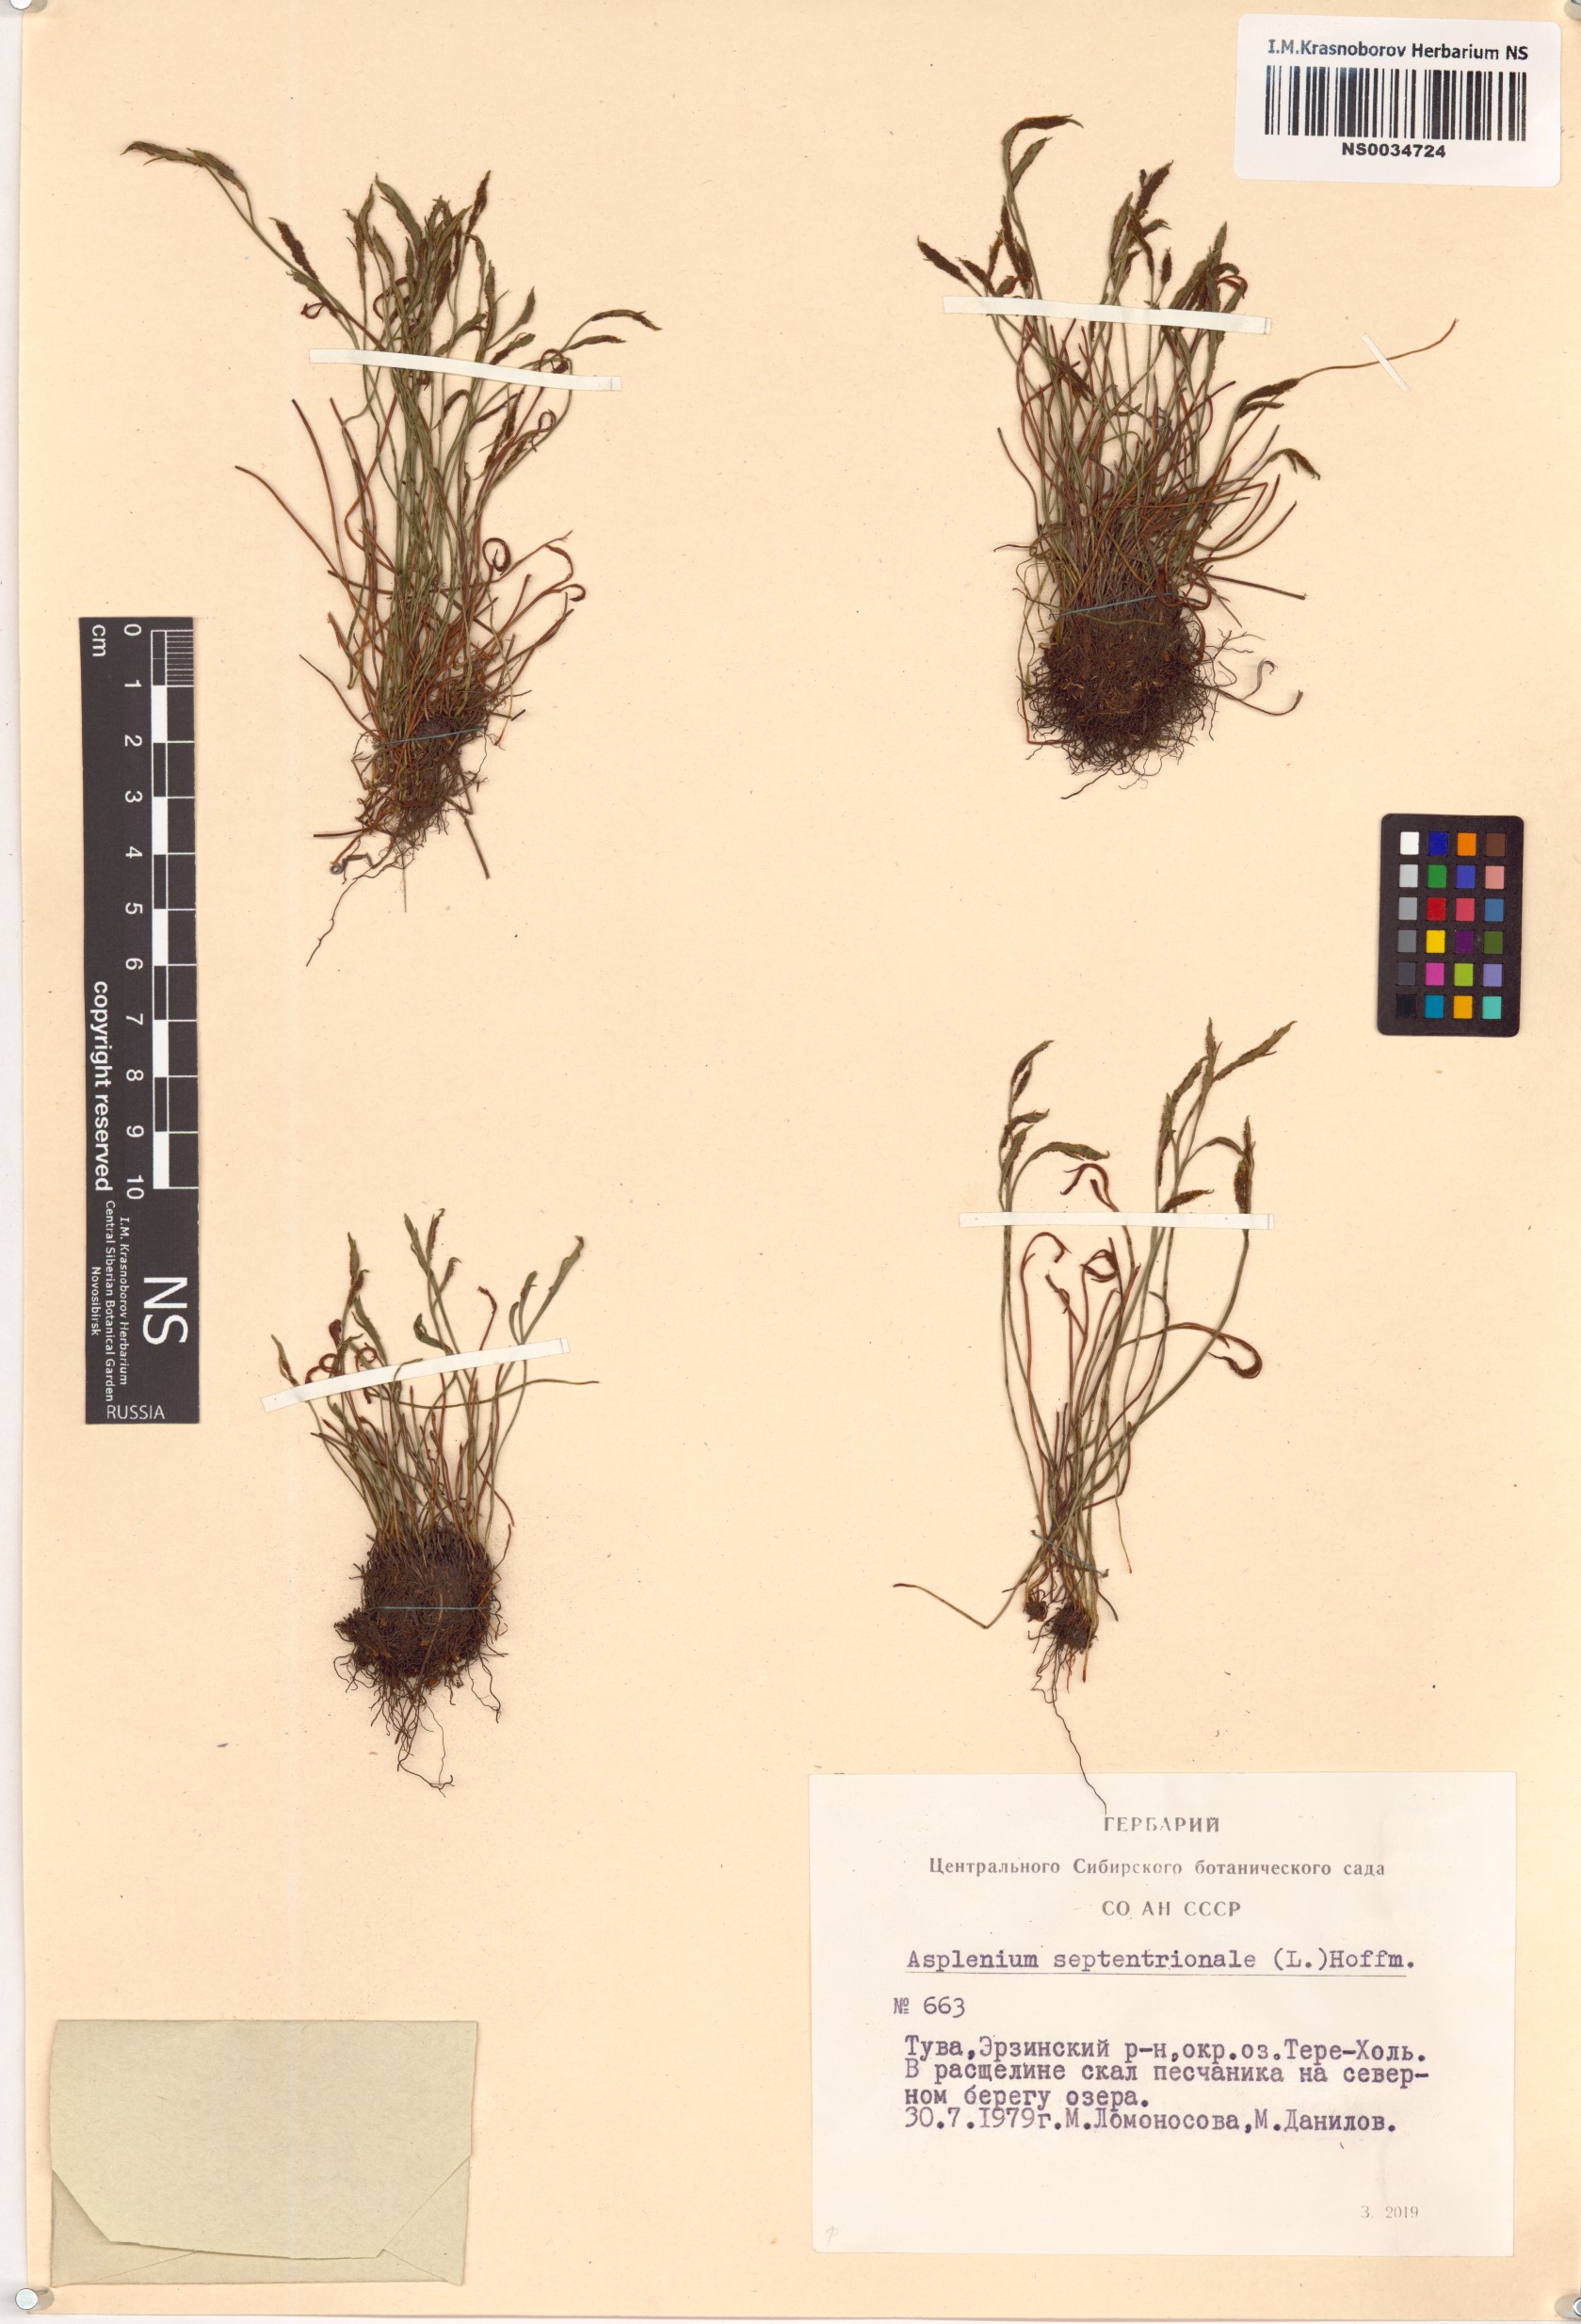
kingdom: Plantae
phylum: Tracheophyta
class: Polypodiopsida
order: Polypodiales
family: Aspleniaceae
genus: Asplenium
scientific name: Asplenium septentrionale
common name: Forked spleenwort
